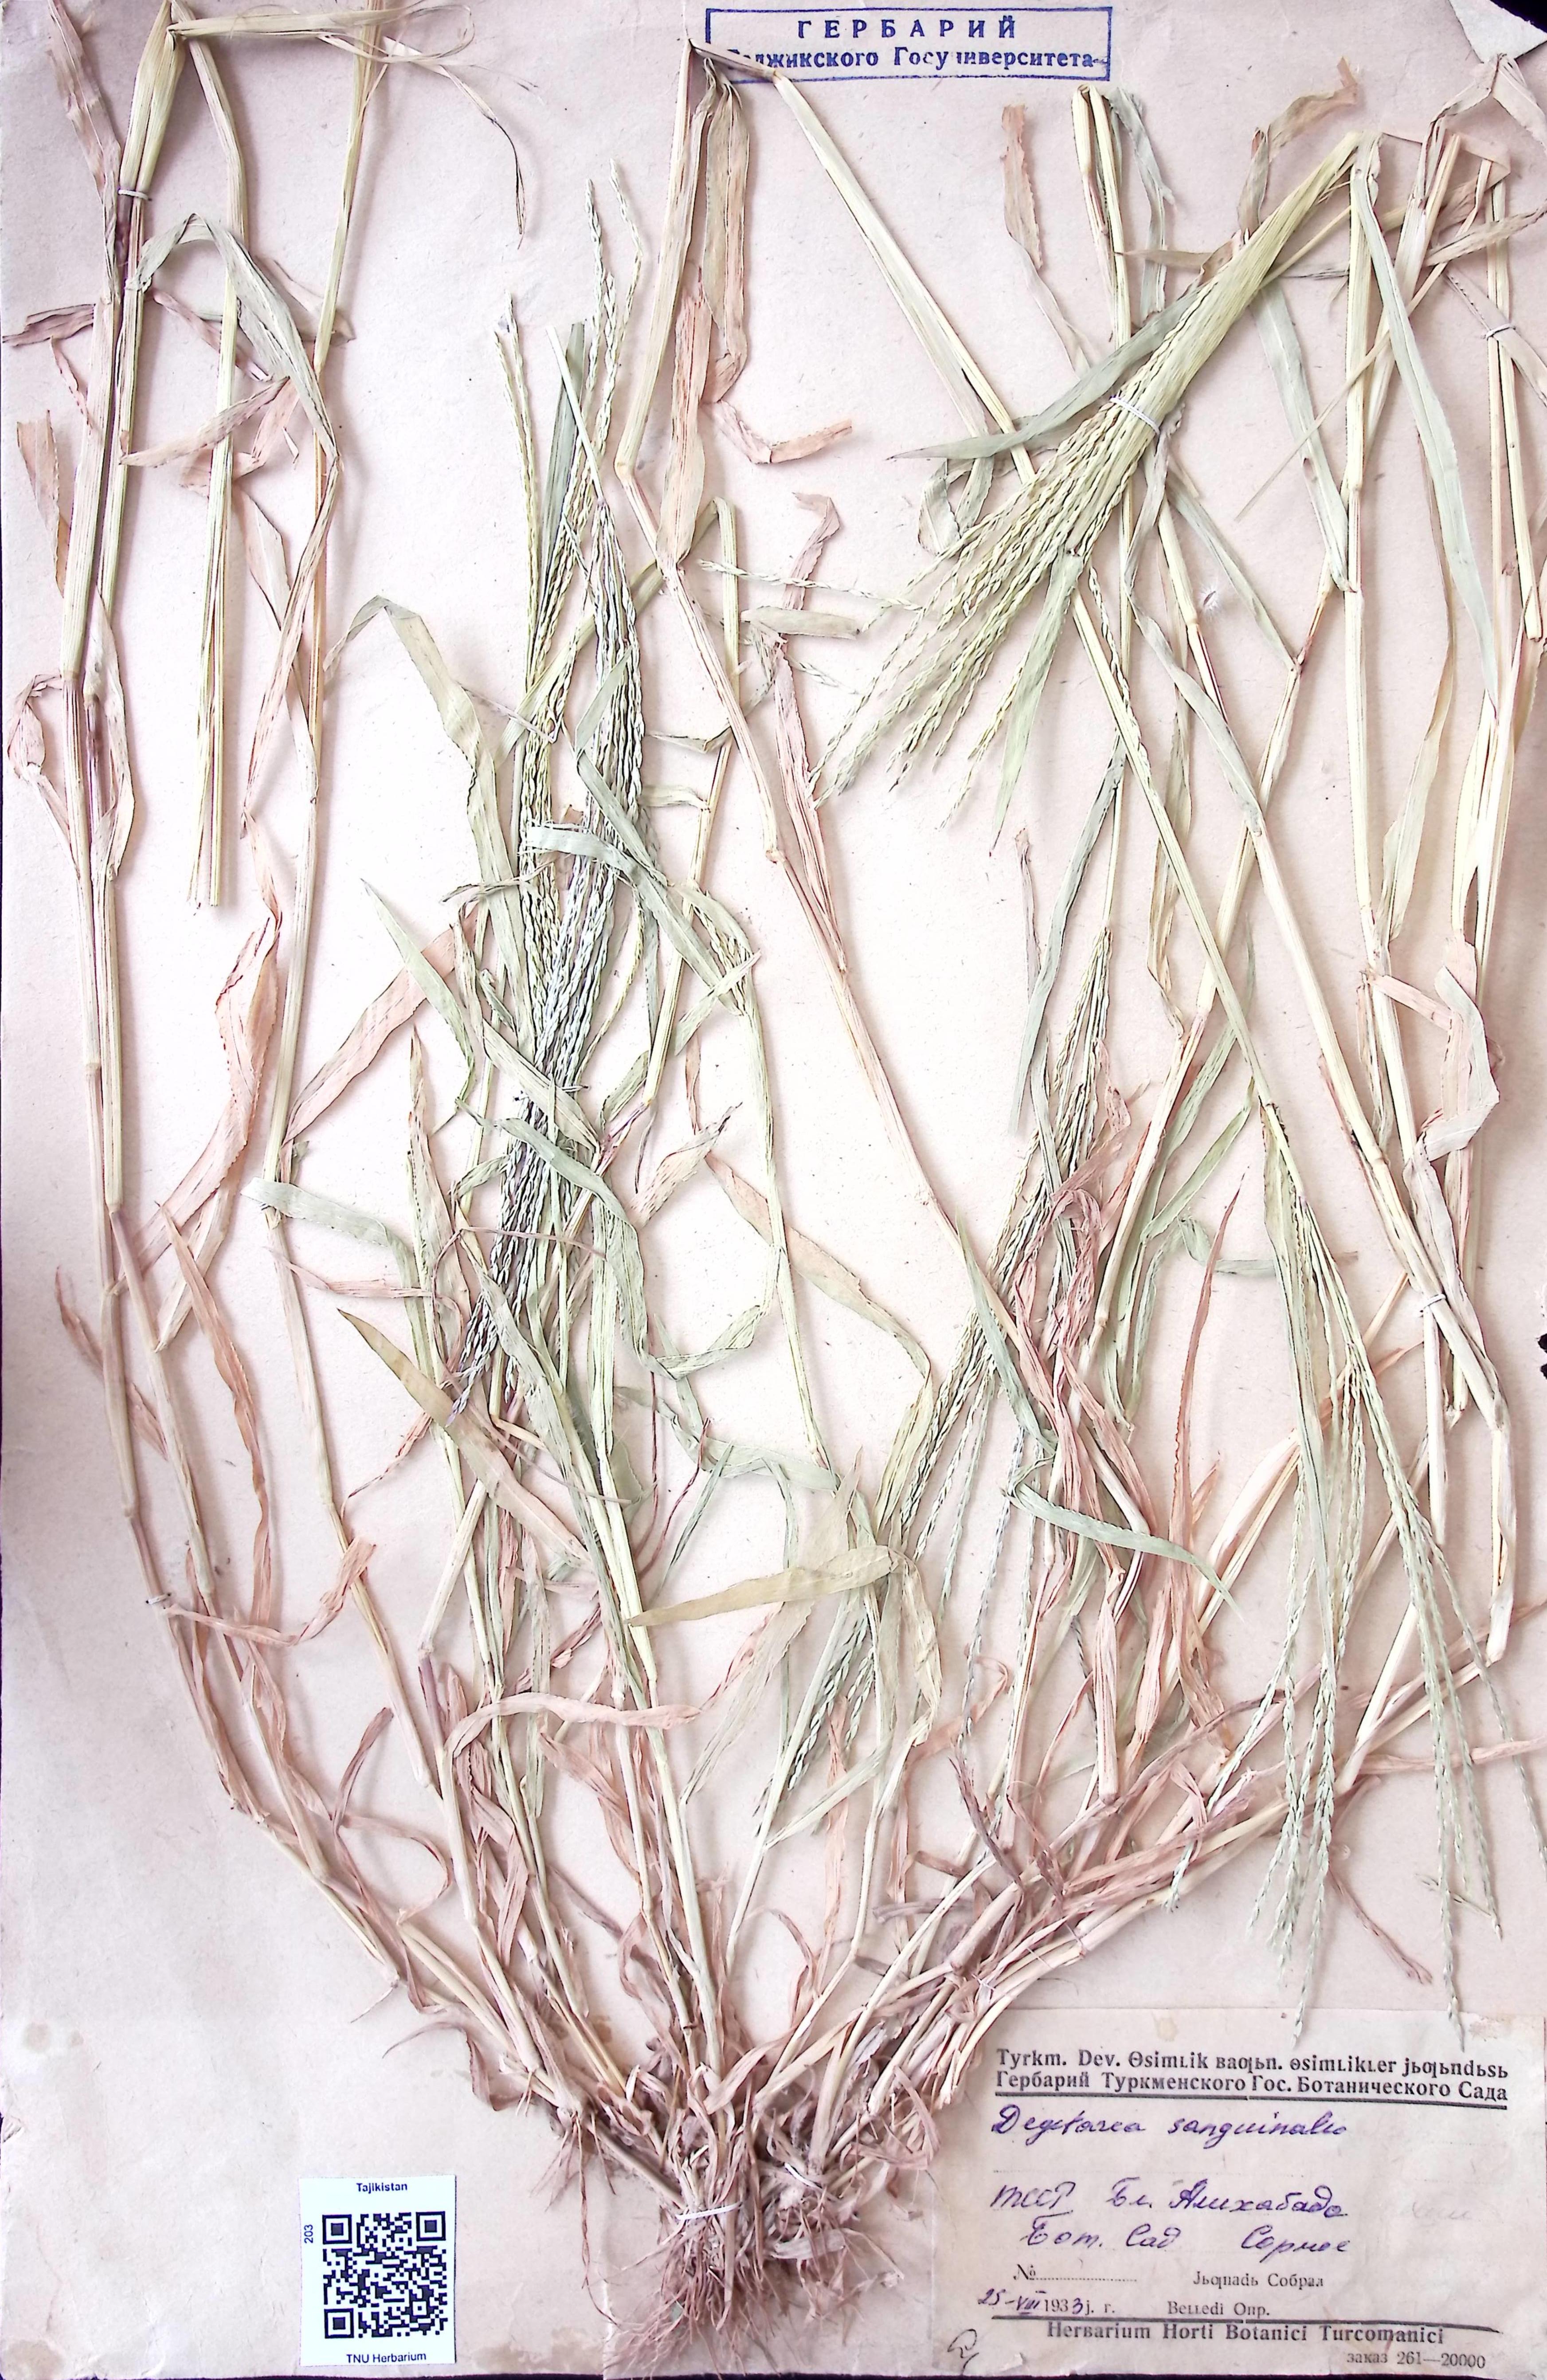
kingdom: Plantae
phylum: Tracheophyta
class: Liliopsida
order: Poales
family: Poaceae
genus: Digitaria
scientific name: Digitaria sanguinalis
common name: Hairy crabgrass
